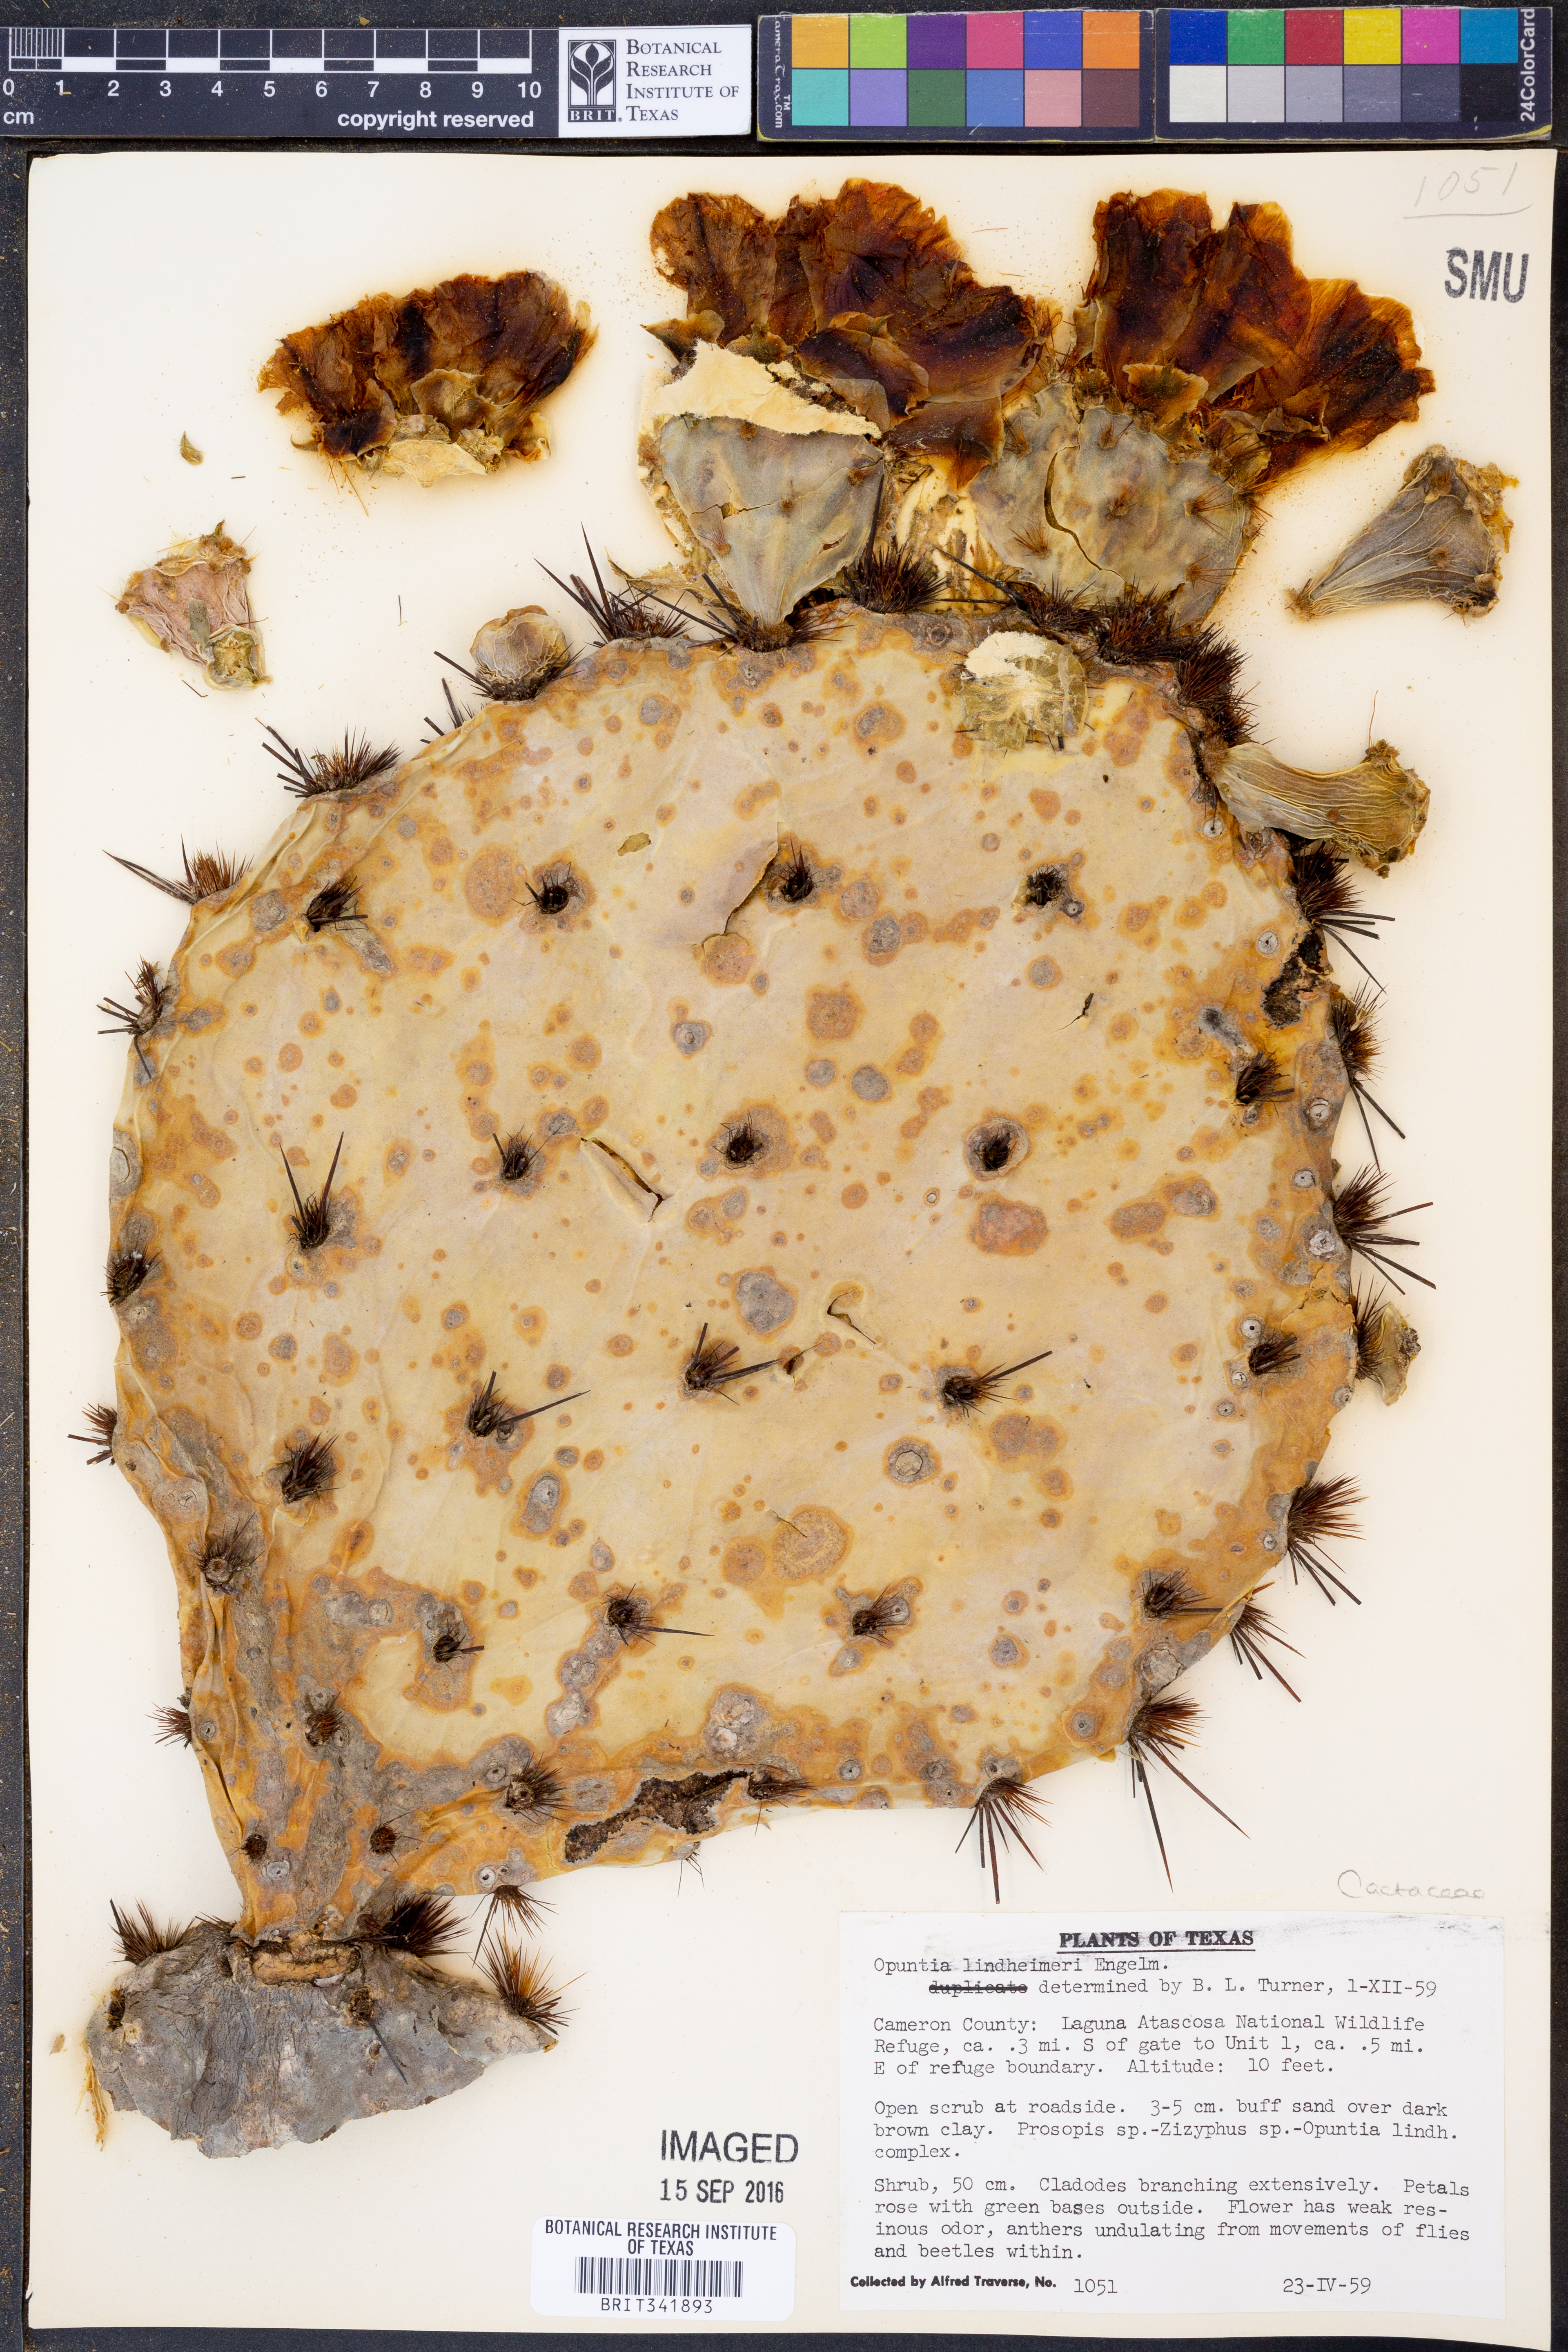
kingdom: Plantae
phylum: Tracheophyta
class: Magnoliopsida
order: Caryophyllales
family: Cactaceae
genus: Opuntia
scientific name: Opuntia engelmannii
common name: Cactus-apple
